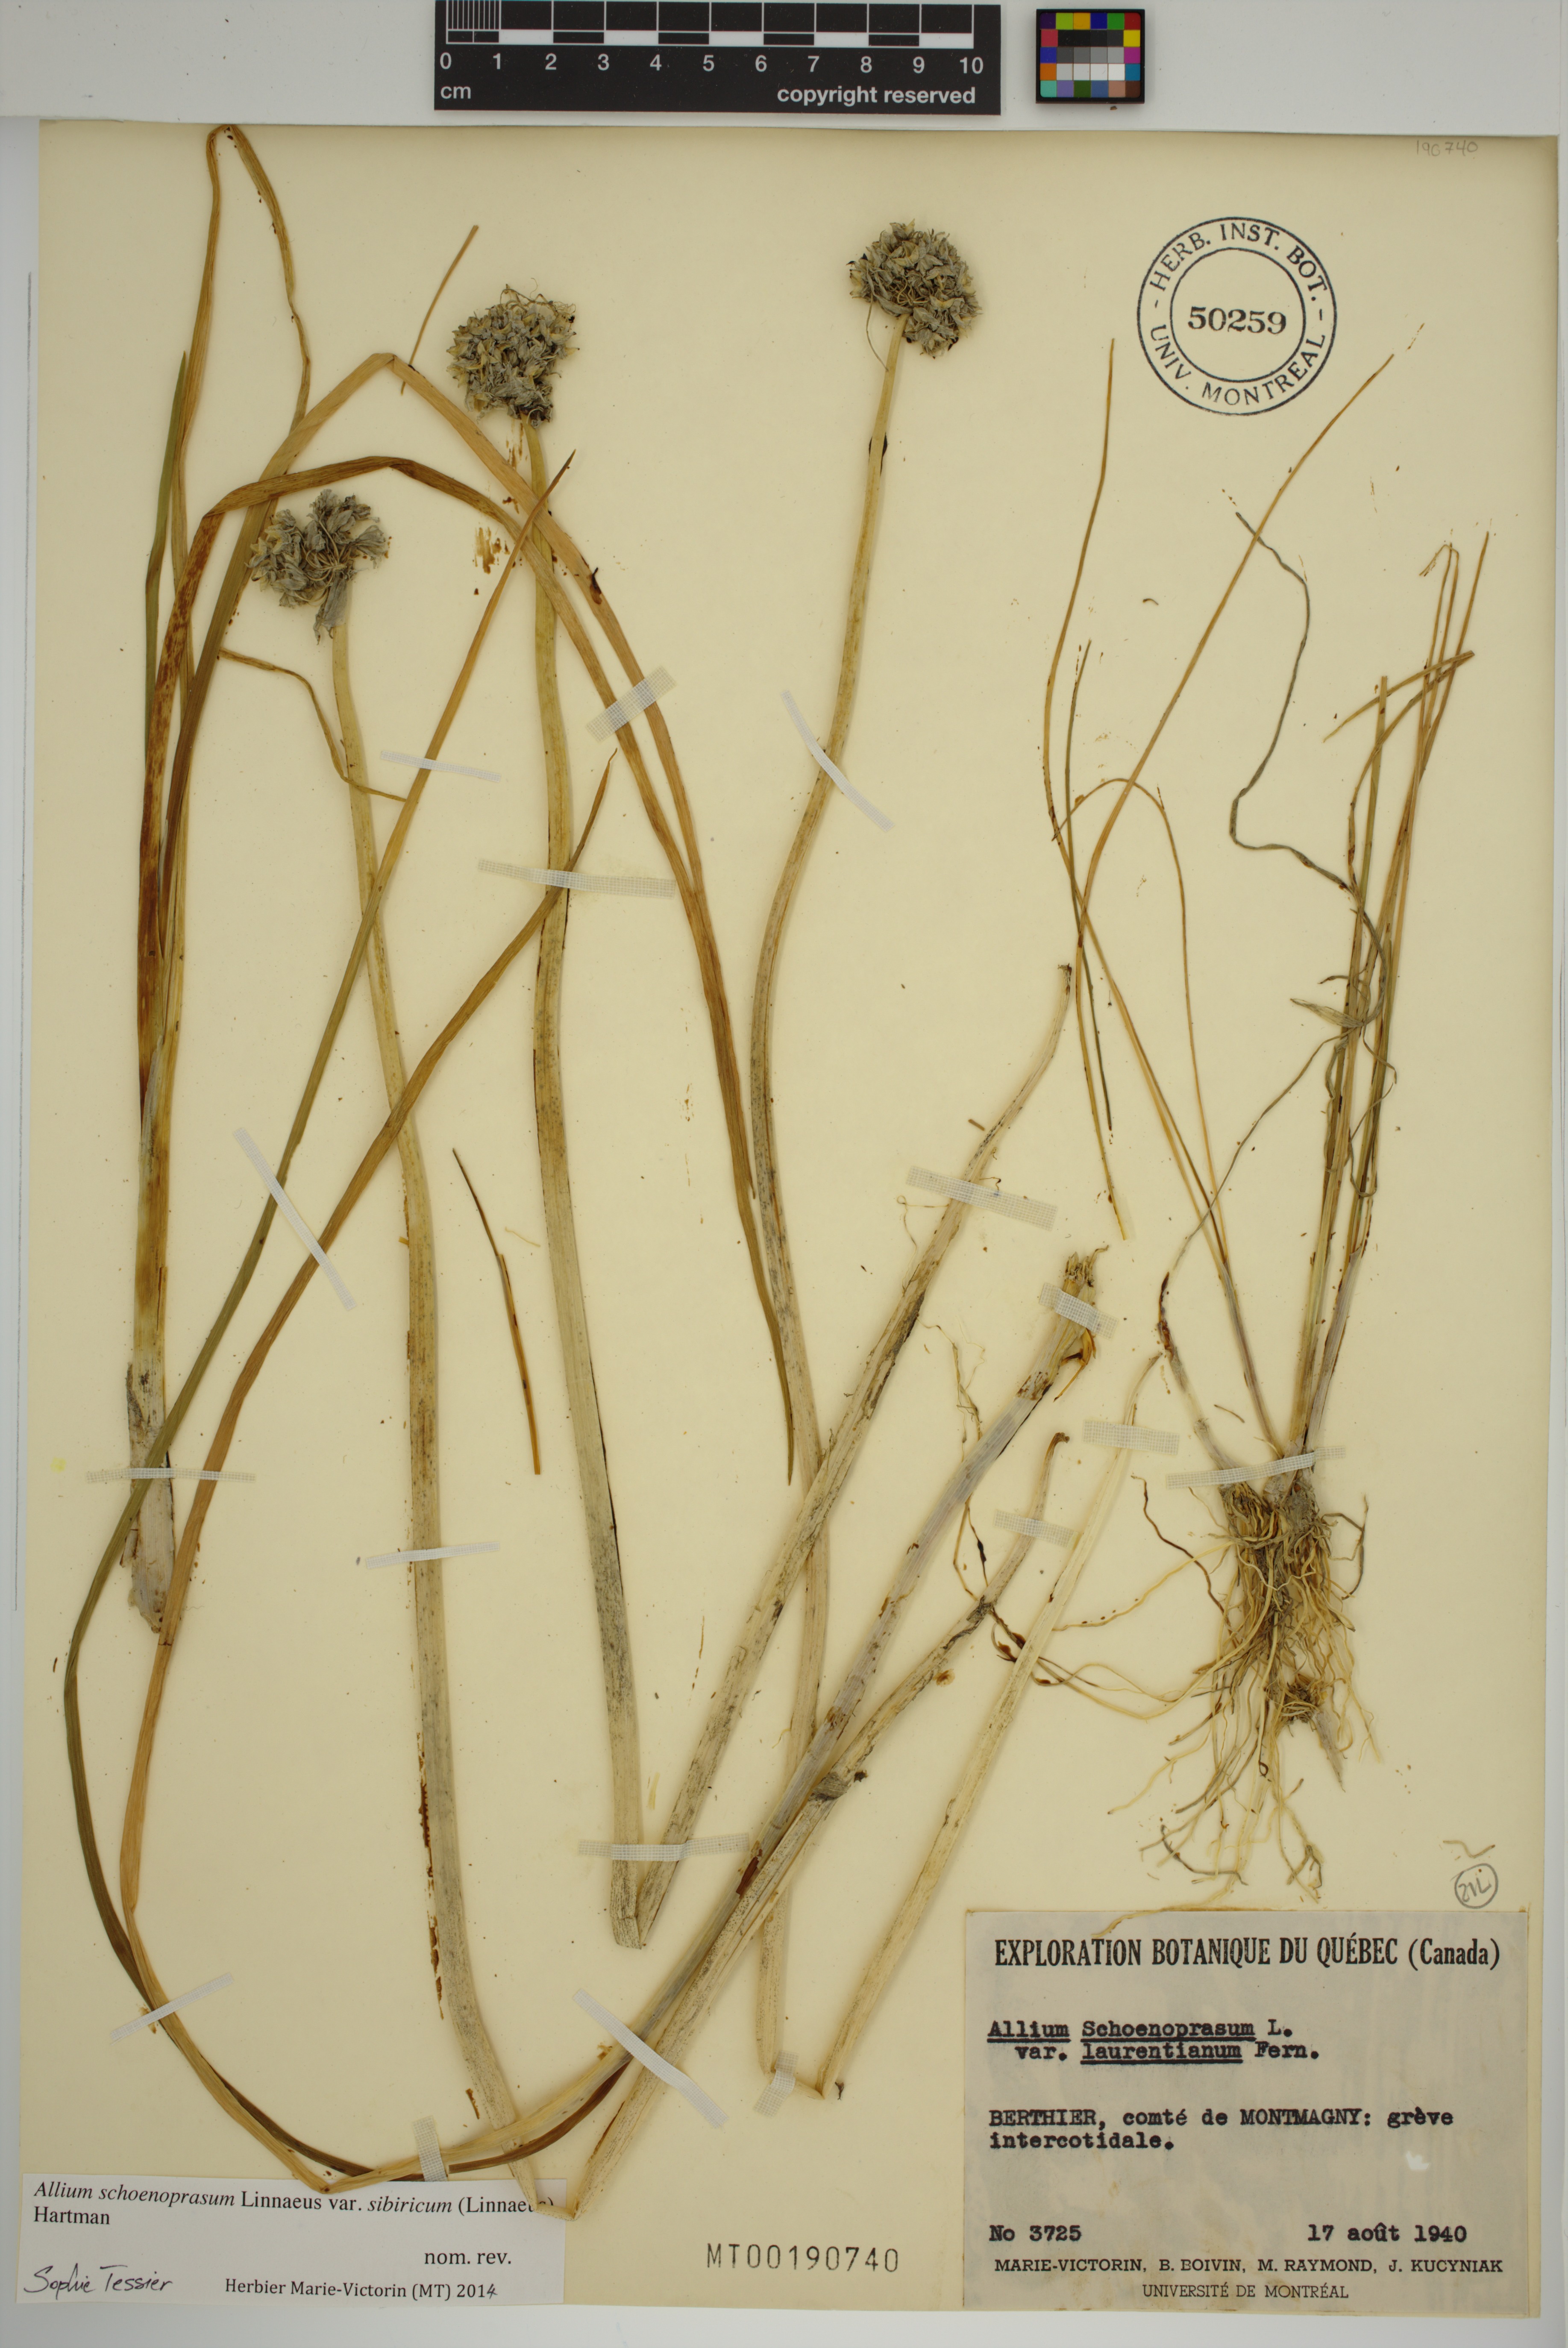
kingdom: Plantae
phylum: Tracheophyta
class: Liliopsida
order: Asparagales
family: Amaryllidaceae
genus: Allium
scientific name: Allium schoenoprasum
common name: Chives
